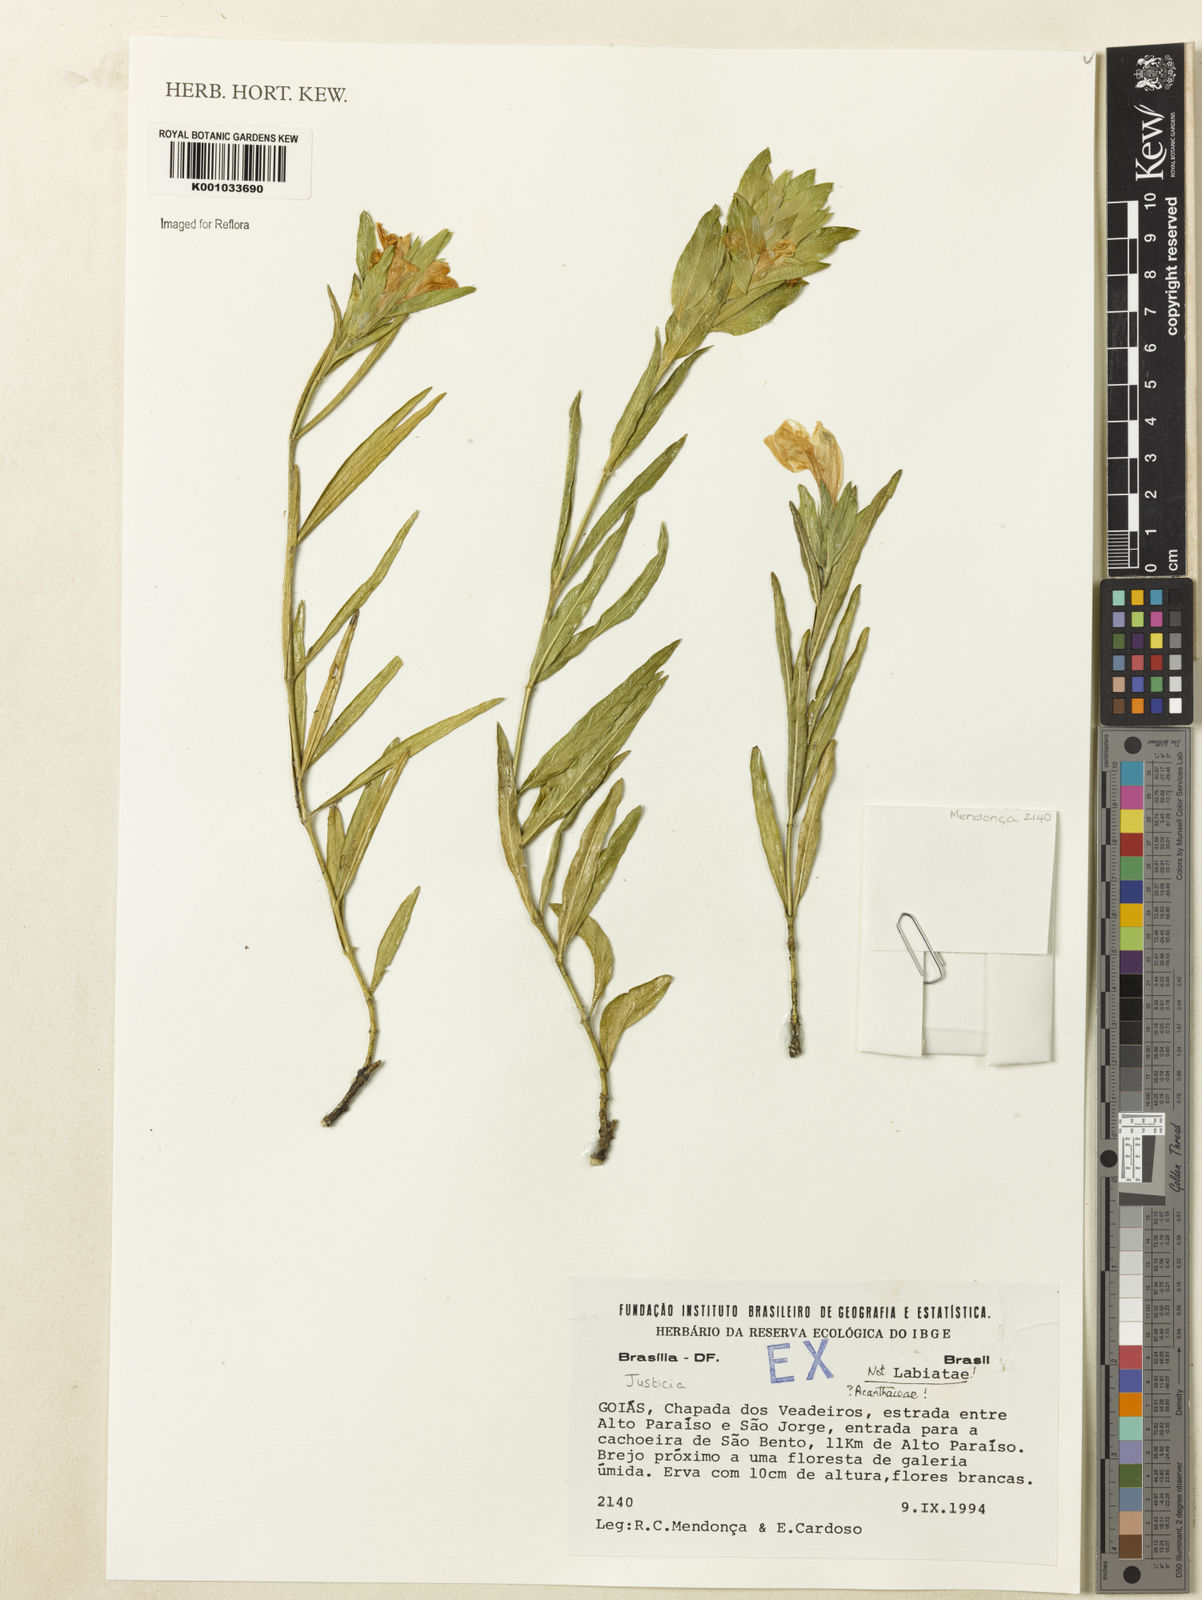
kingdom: Plantae
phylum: Tracheophyta
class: Magnoliopsida
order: Lamiales
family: Acanthaceae
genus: Justicia
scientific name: Justicia
